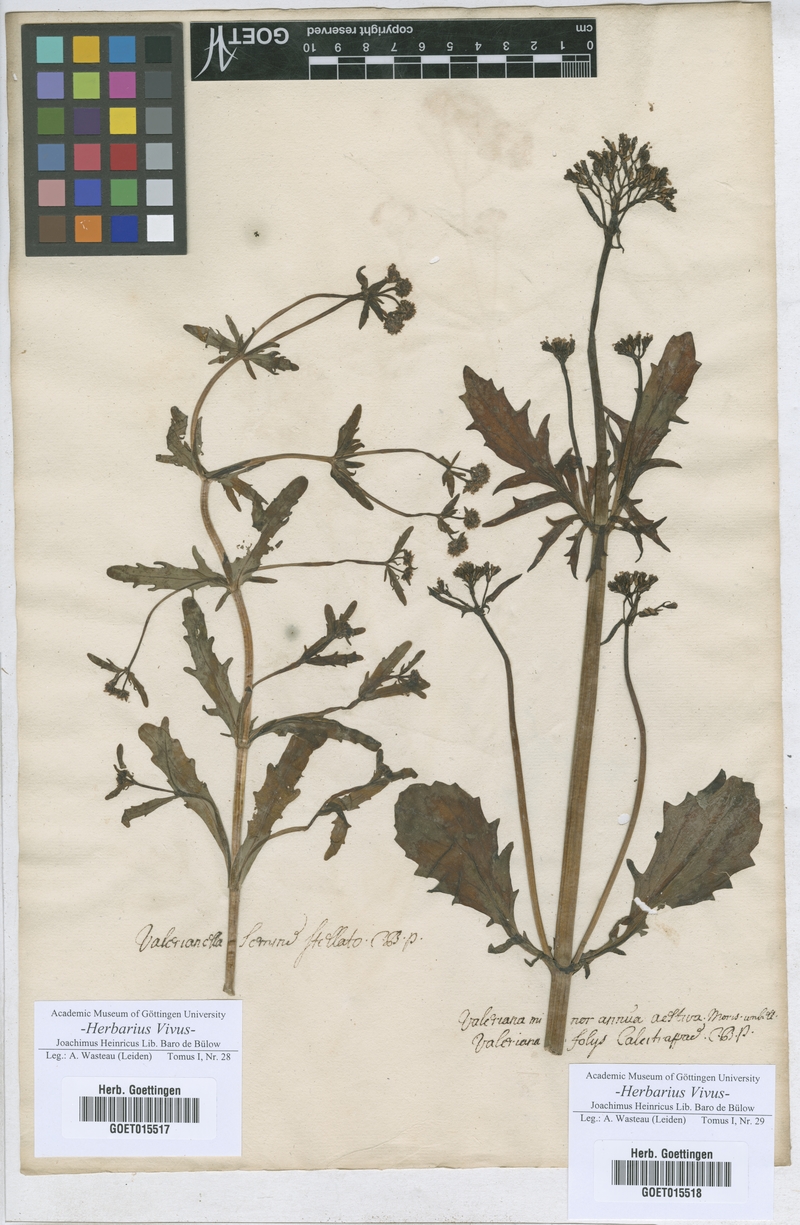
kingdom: Plantae
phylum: Tracheophyta
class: Magnoliopsida
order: Dipsacales
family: Caprifoliaceae
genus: Valerianella
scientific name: Valerianella coronata
